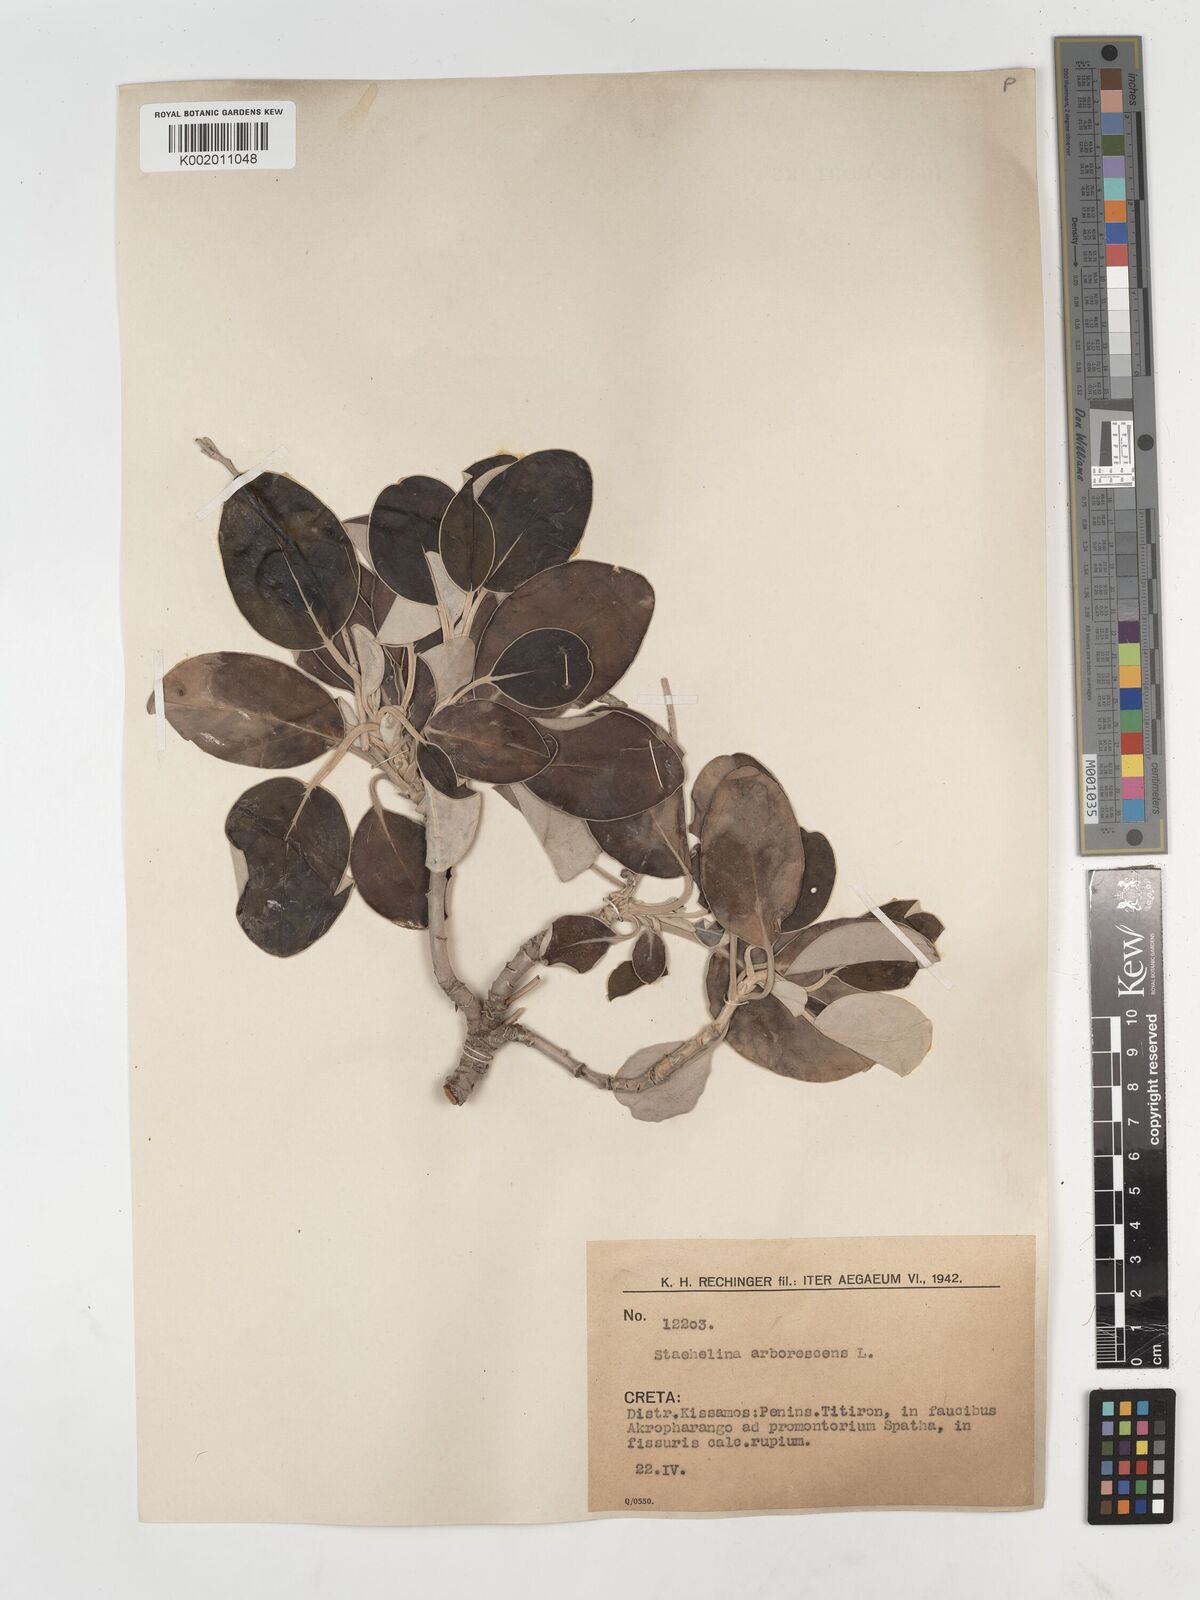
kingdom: Plantae
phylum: Tracheophyta
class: Magnoliopsida
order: Asterales
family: Asteraceae
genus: Staehelina
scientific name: Staehelina petiolata
